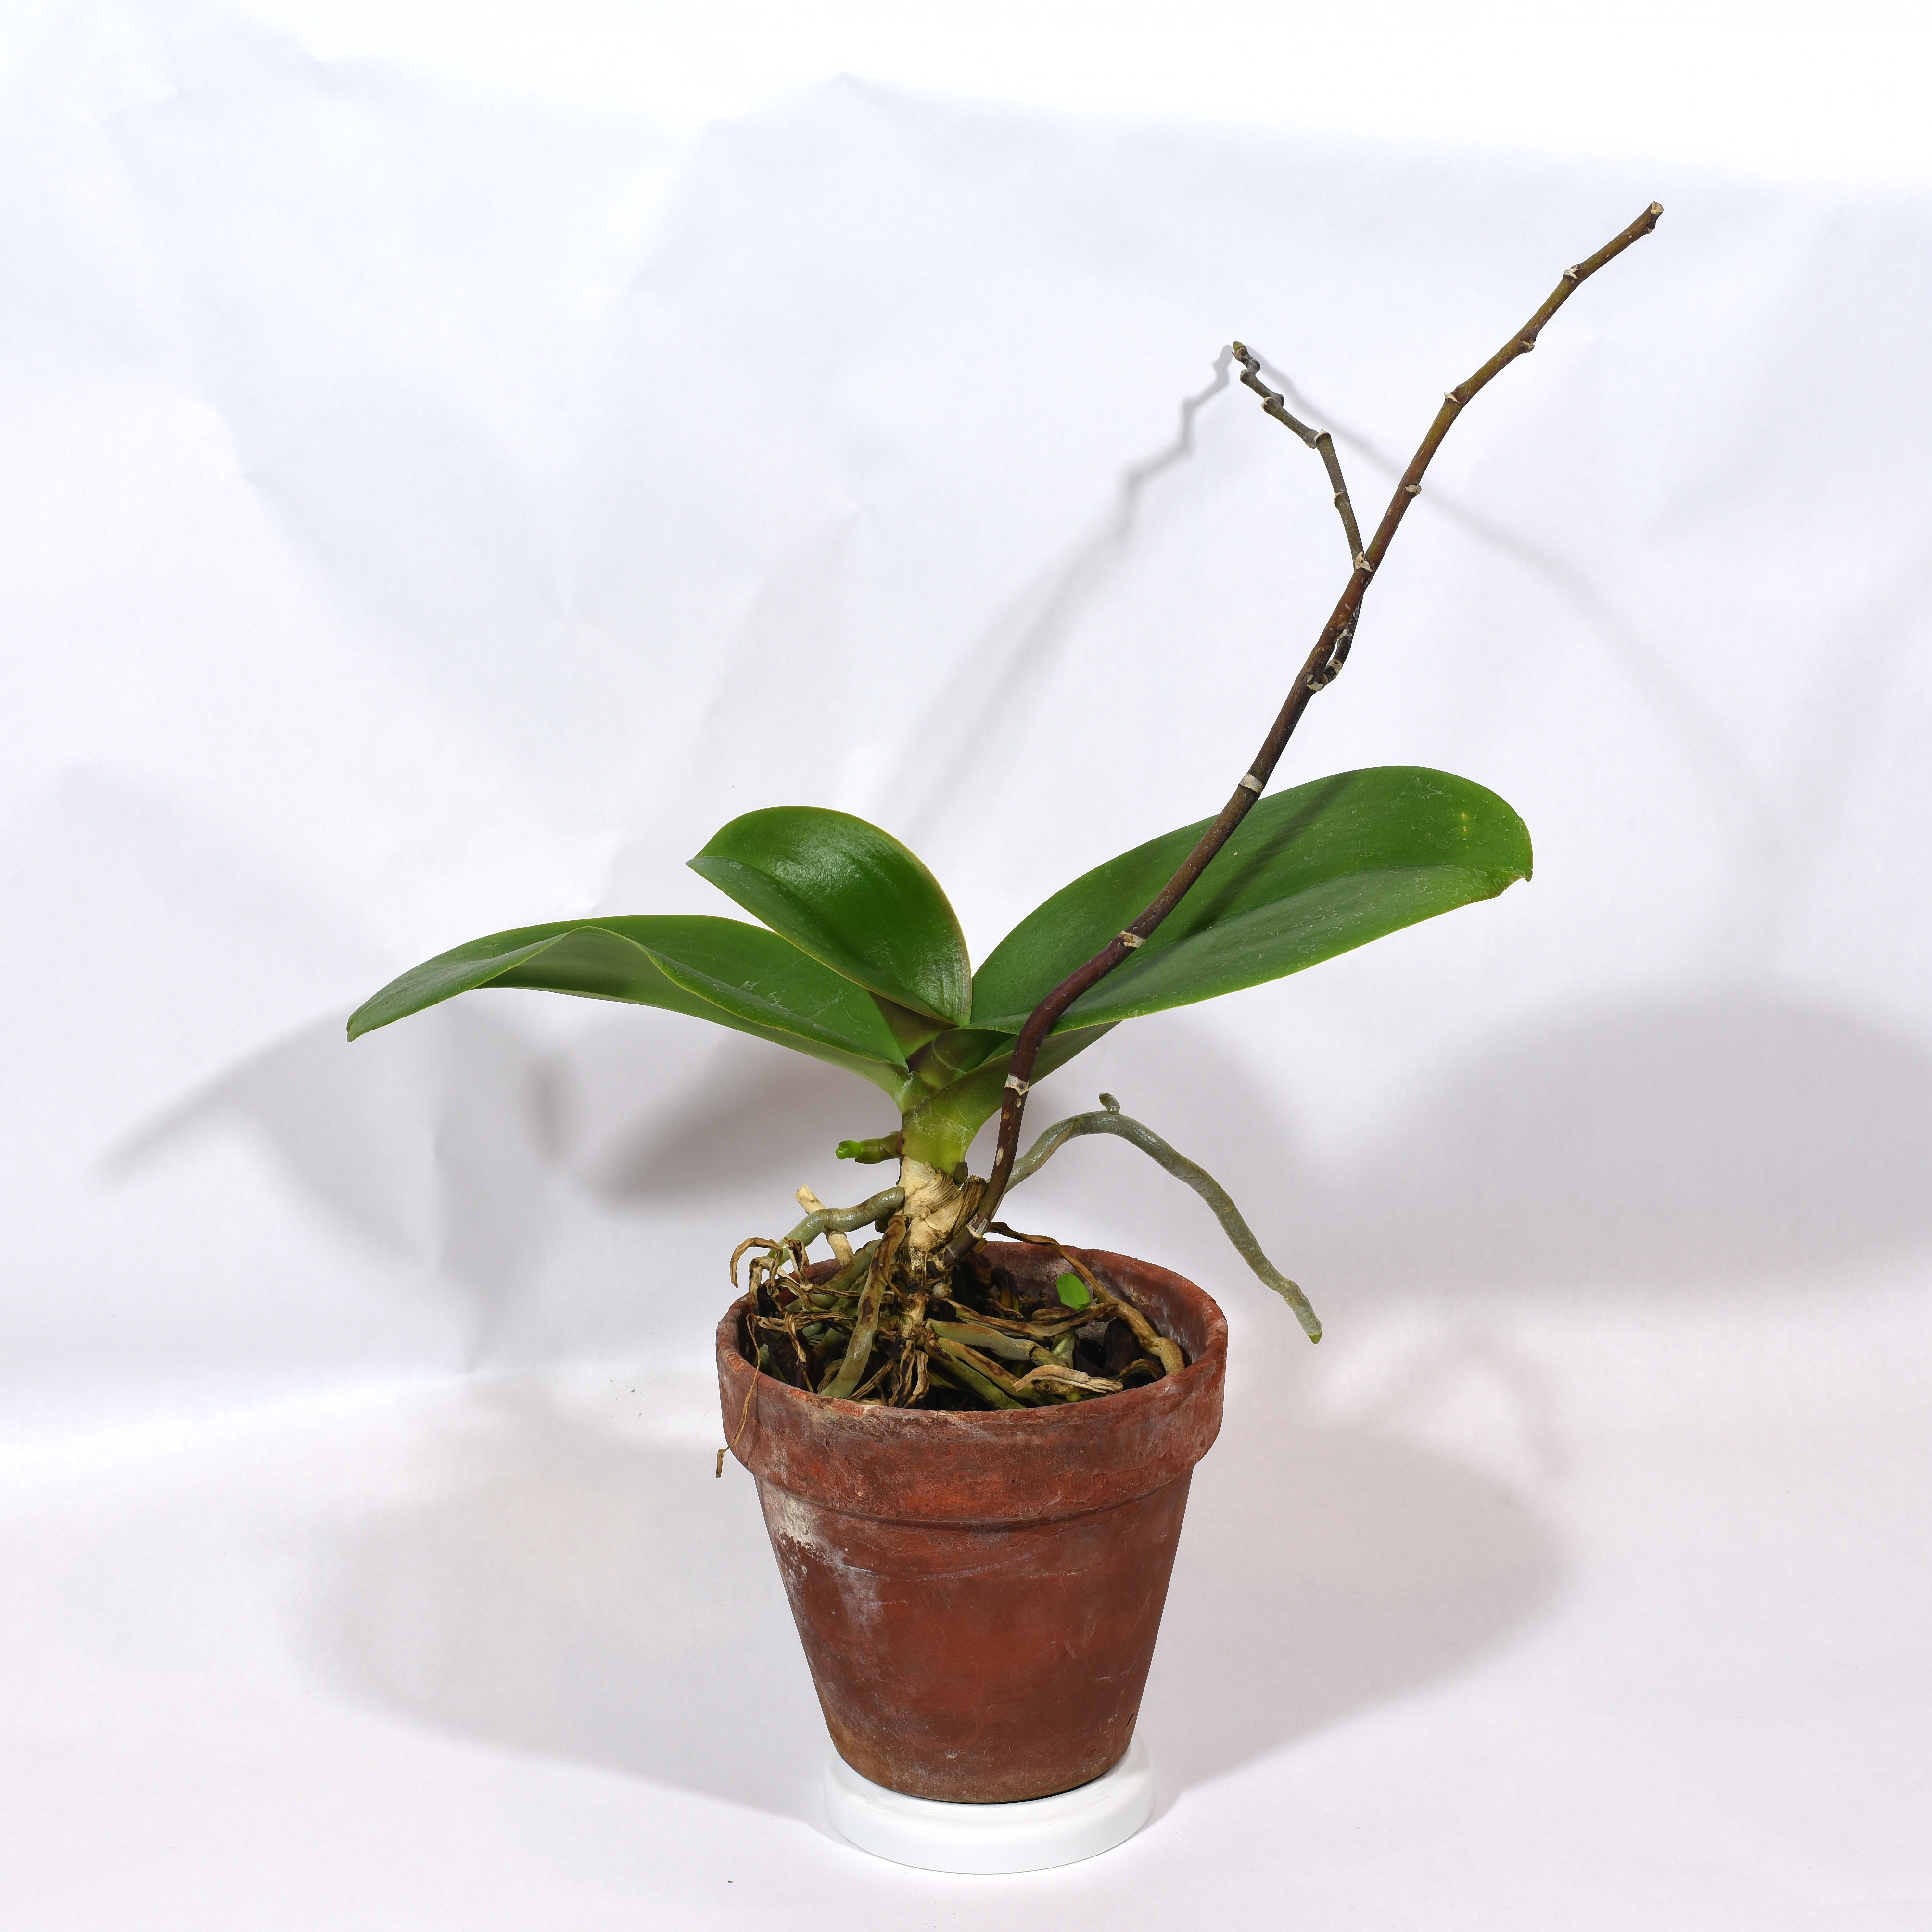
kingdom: Plantae
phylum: Tracheophyta
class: Liliopsida
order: Asparagales
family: Orchidaceae
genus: Phalaenopsis
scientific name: Phalaenopsis aphrodite
